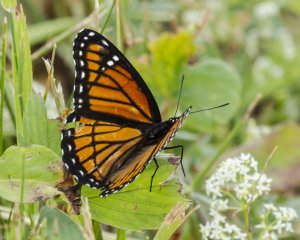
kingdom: Animalia
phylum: Arthropoda
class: Insecta
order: Lepidoptera
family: Nymphalidae
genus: Limenitis
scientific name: Limenitis archippus
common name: Viceroy
